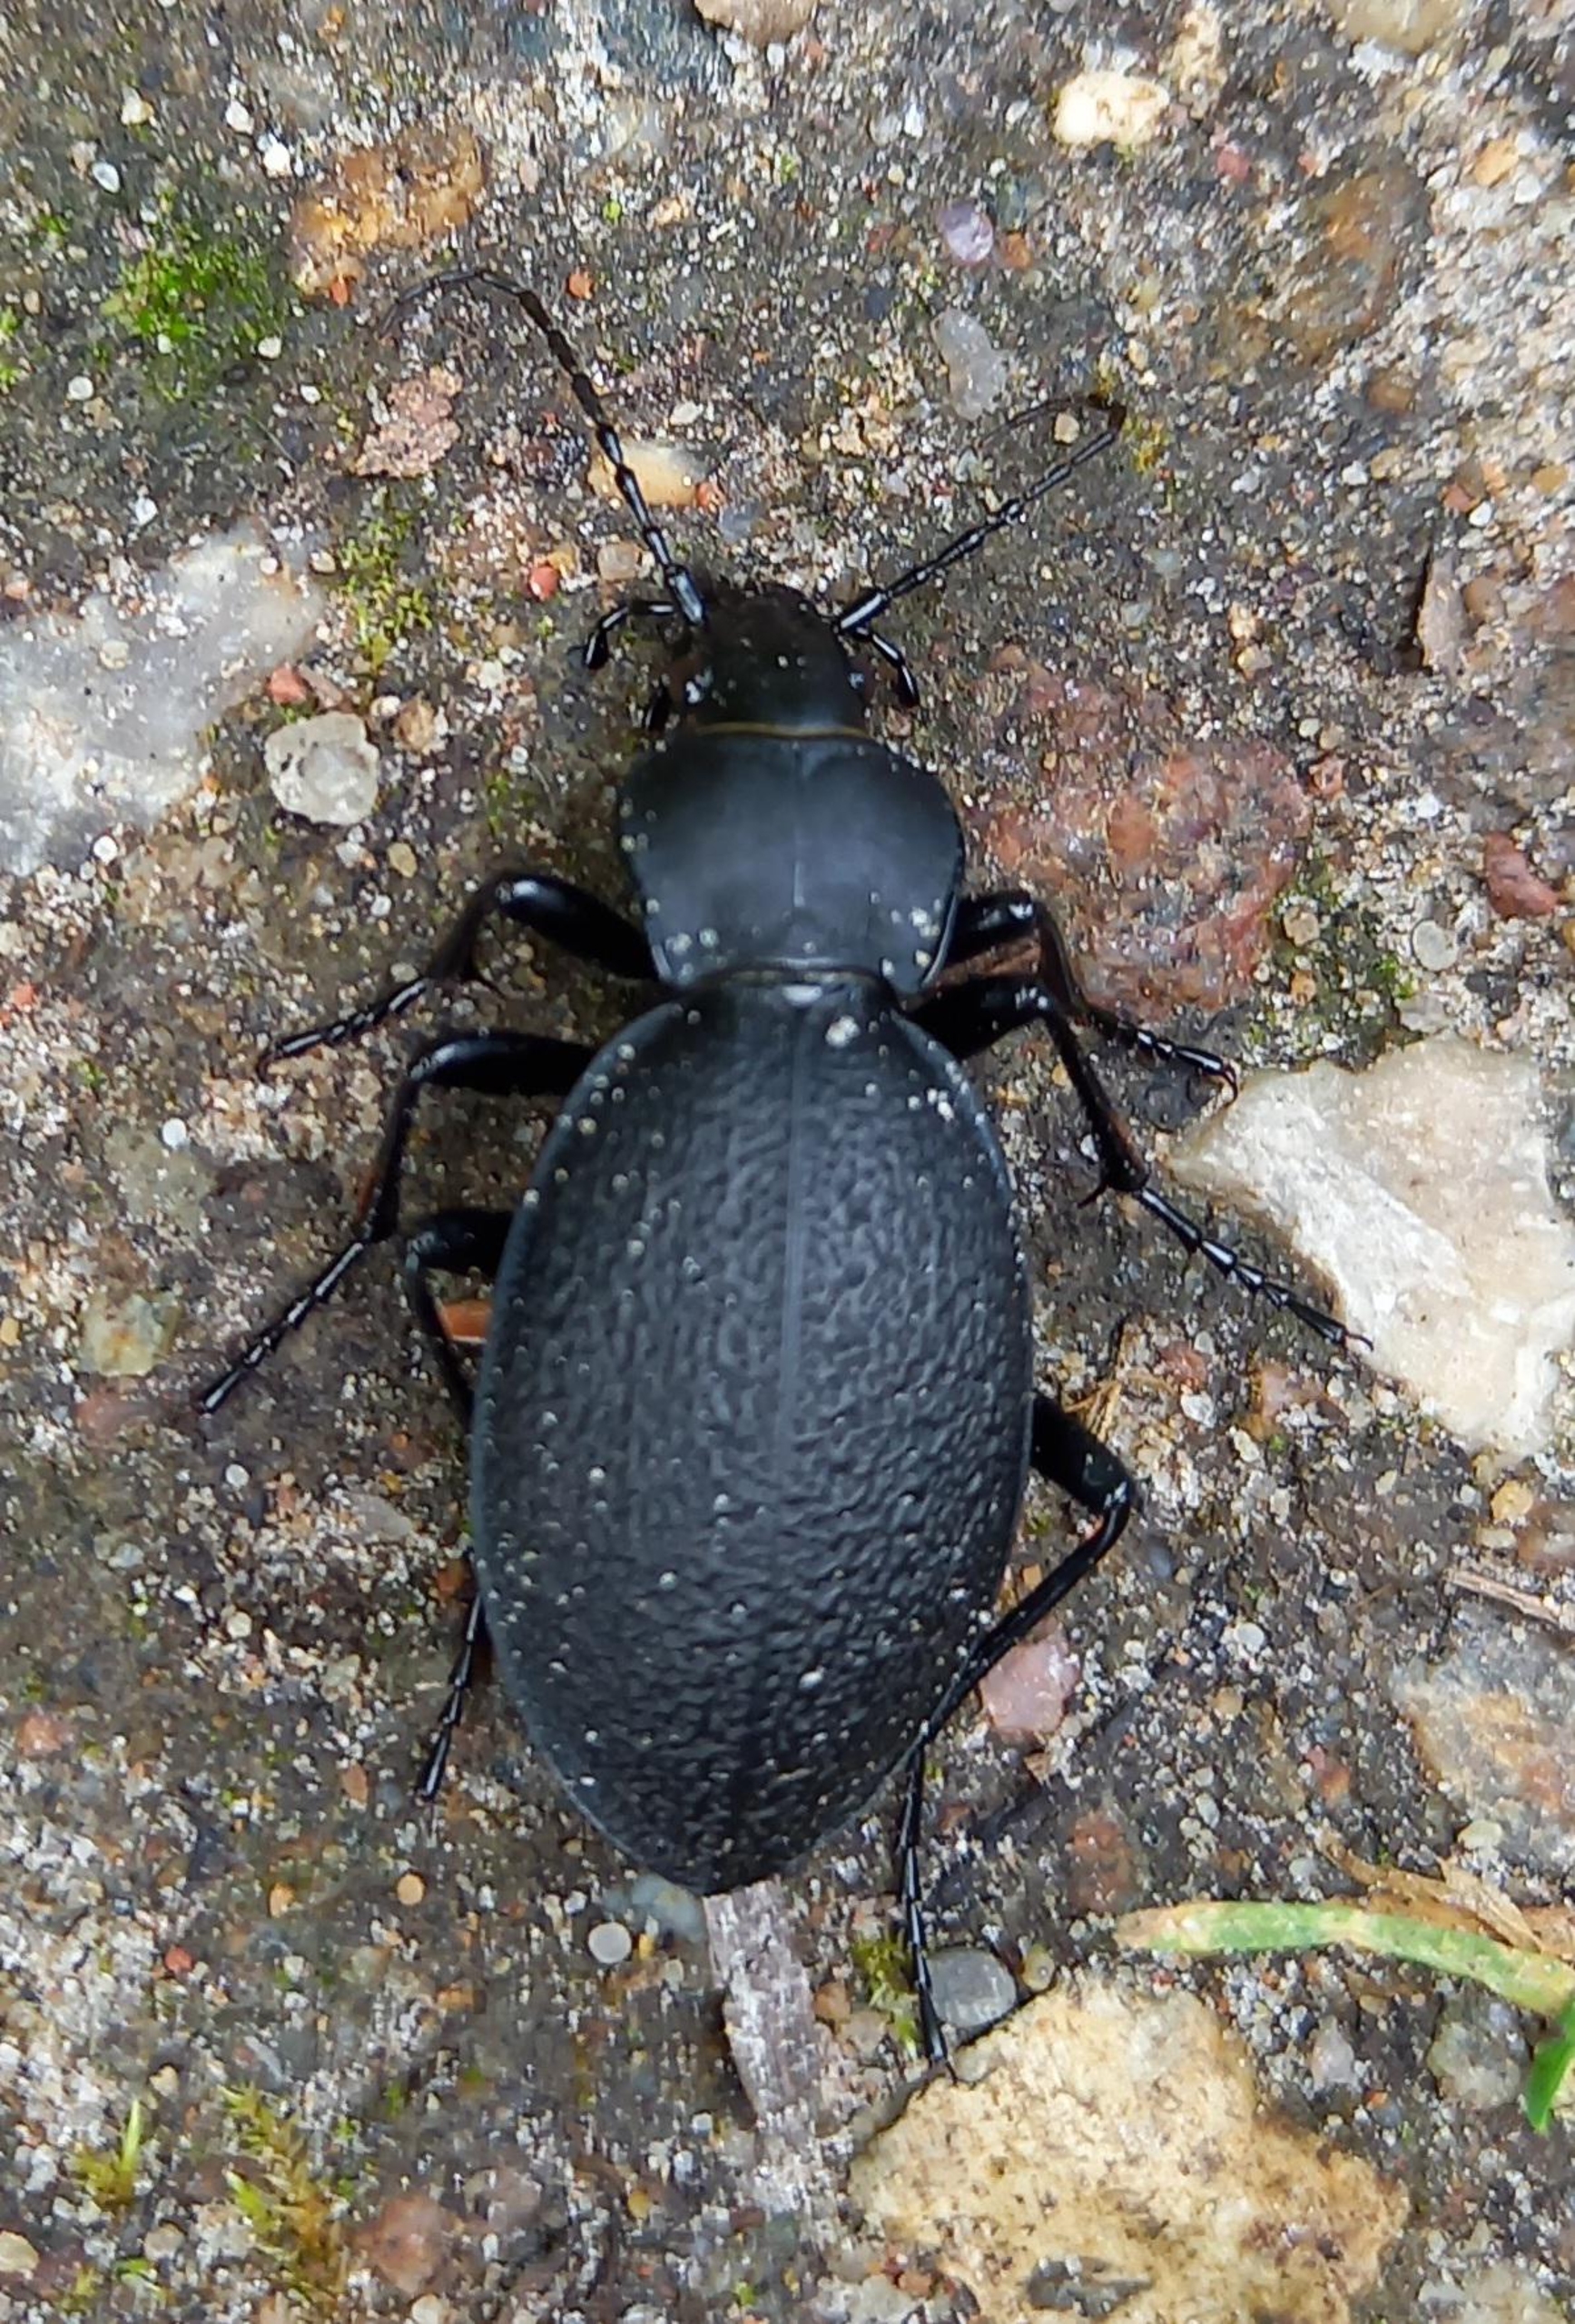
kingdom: Animalia
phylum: Arthropoda
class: Insecta
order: Coleoptera
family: Carabidae
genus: Carabus
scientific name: Carabus coriaceus
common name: Læderløber
